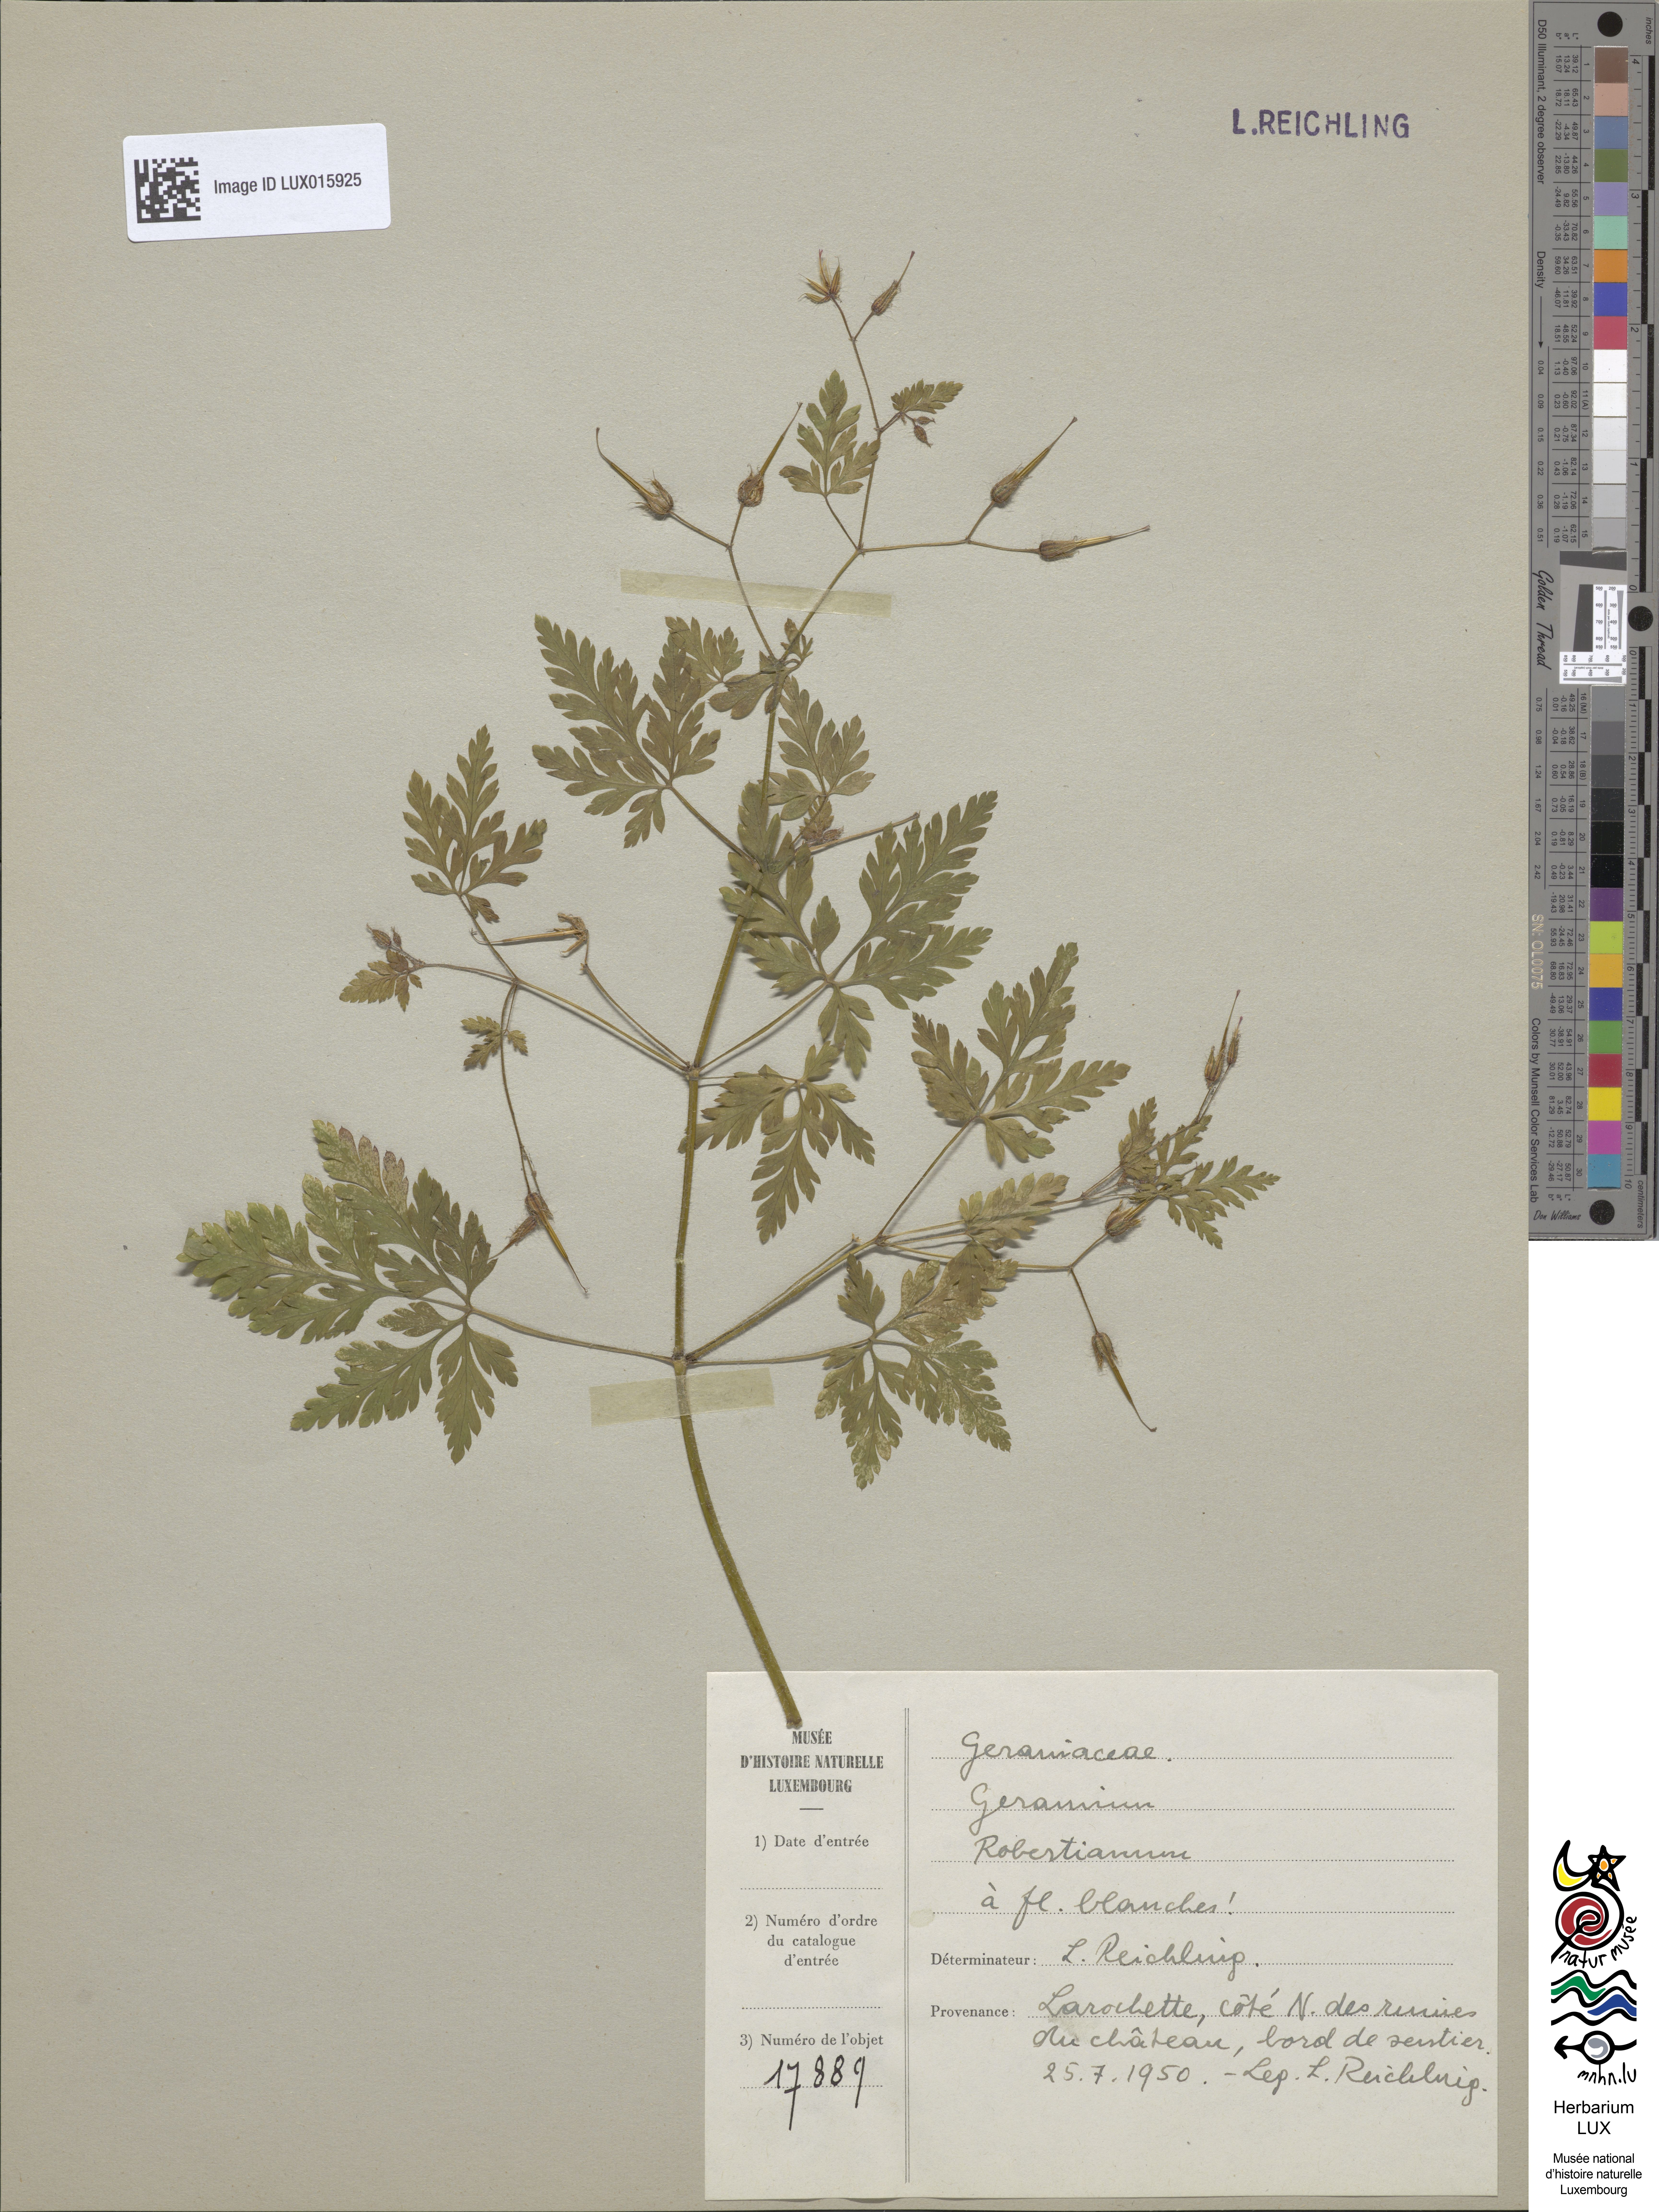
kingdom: Plantae
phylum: Tracheophyta
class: Magnoliopsida
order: Geraniales
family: Geraniaceae
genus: Geranium
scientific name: Geranium robertianum
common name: Herb-robert
